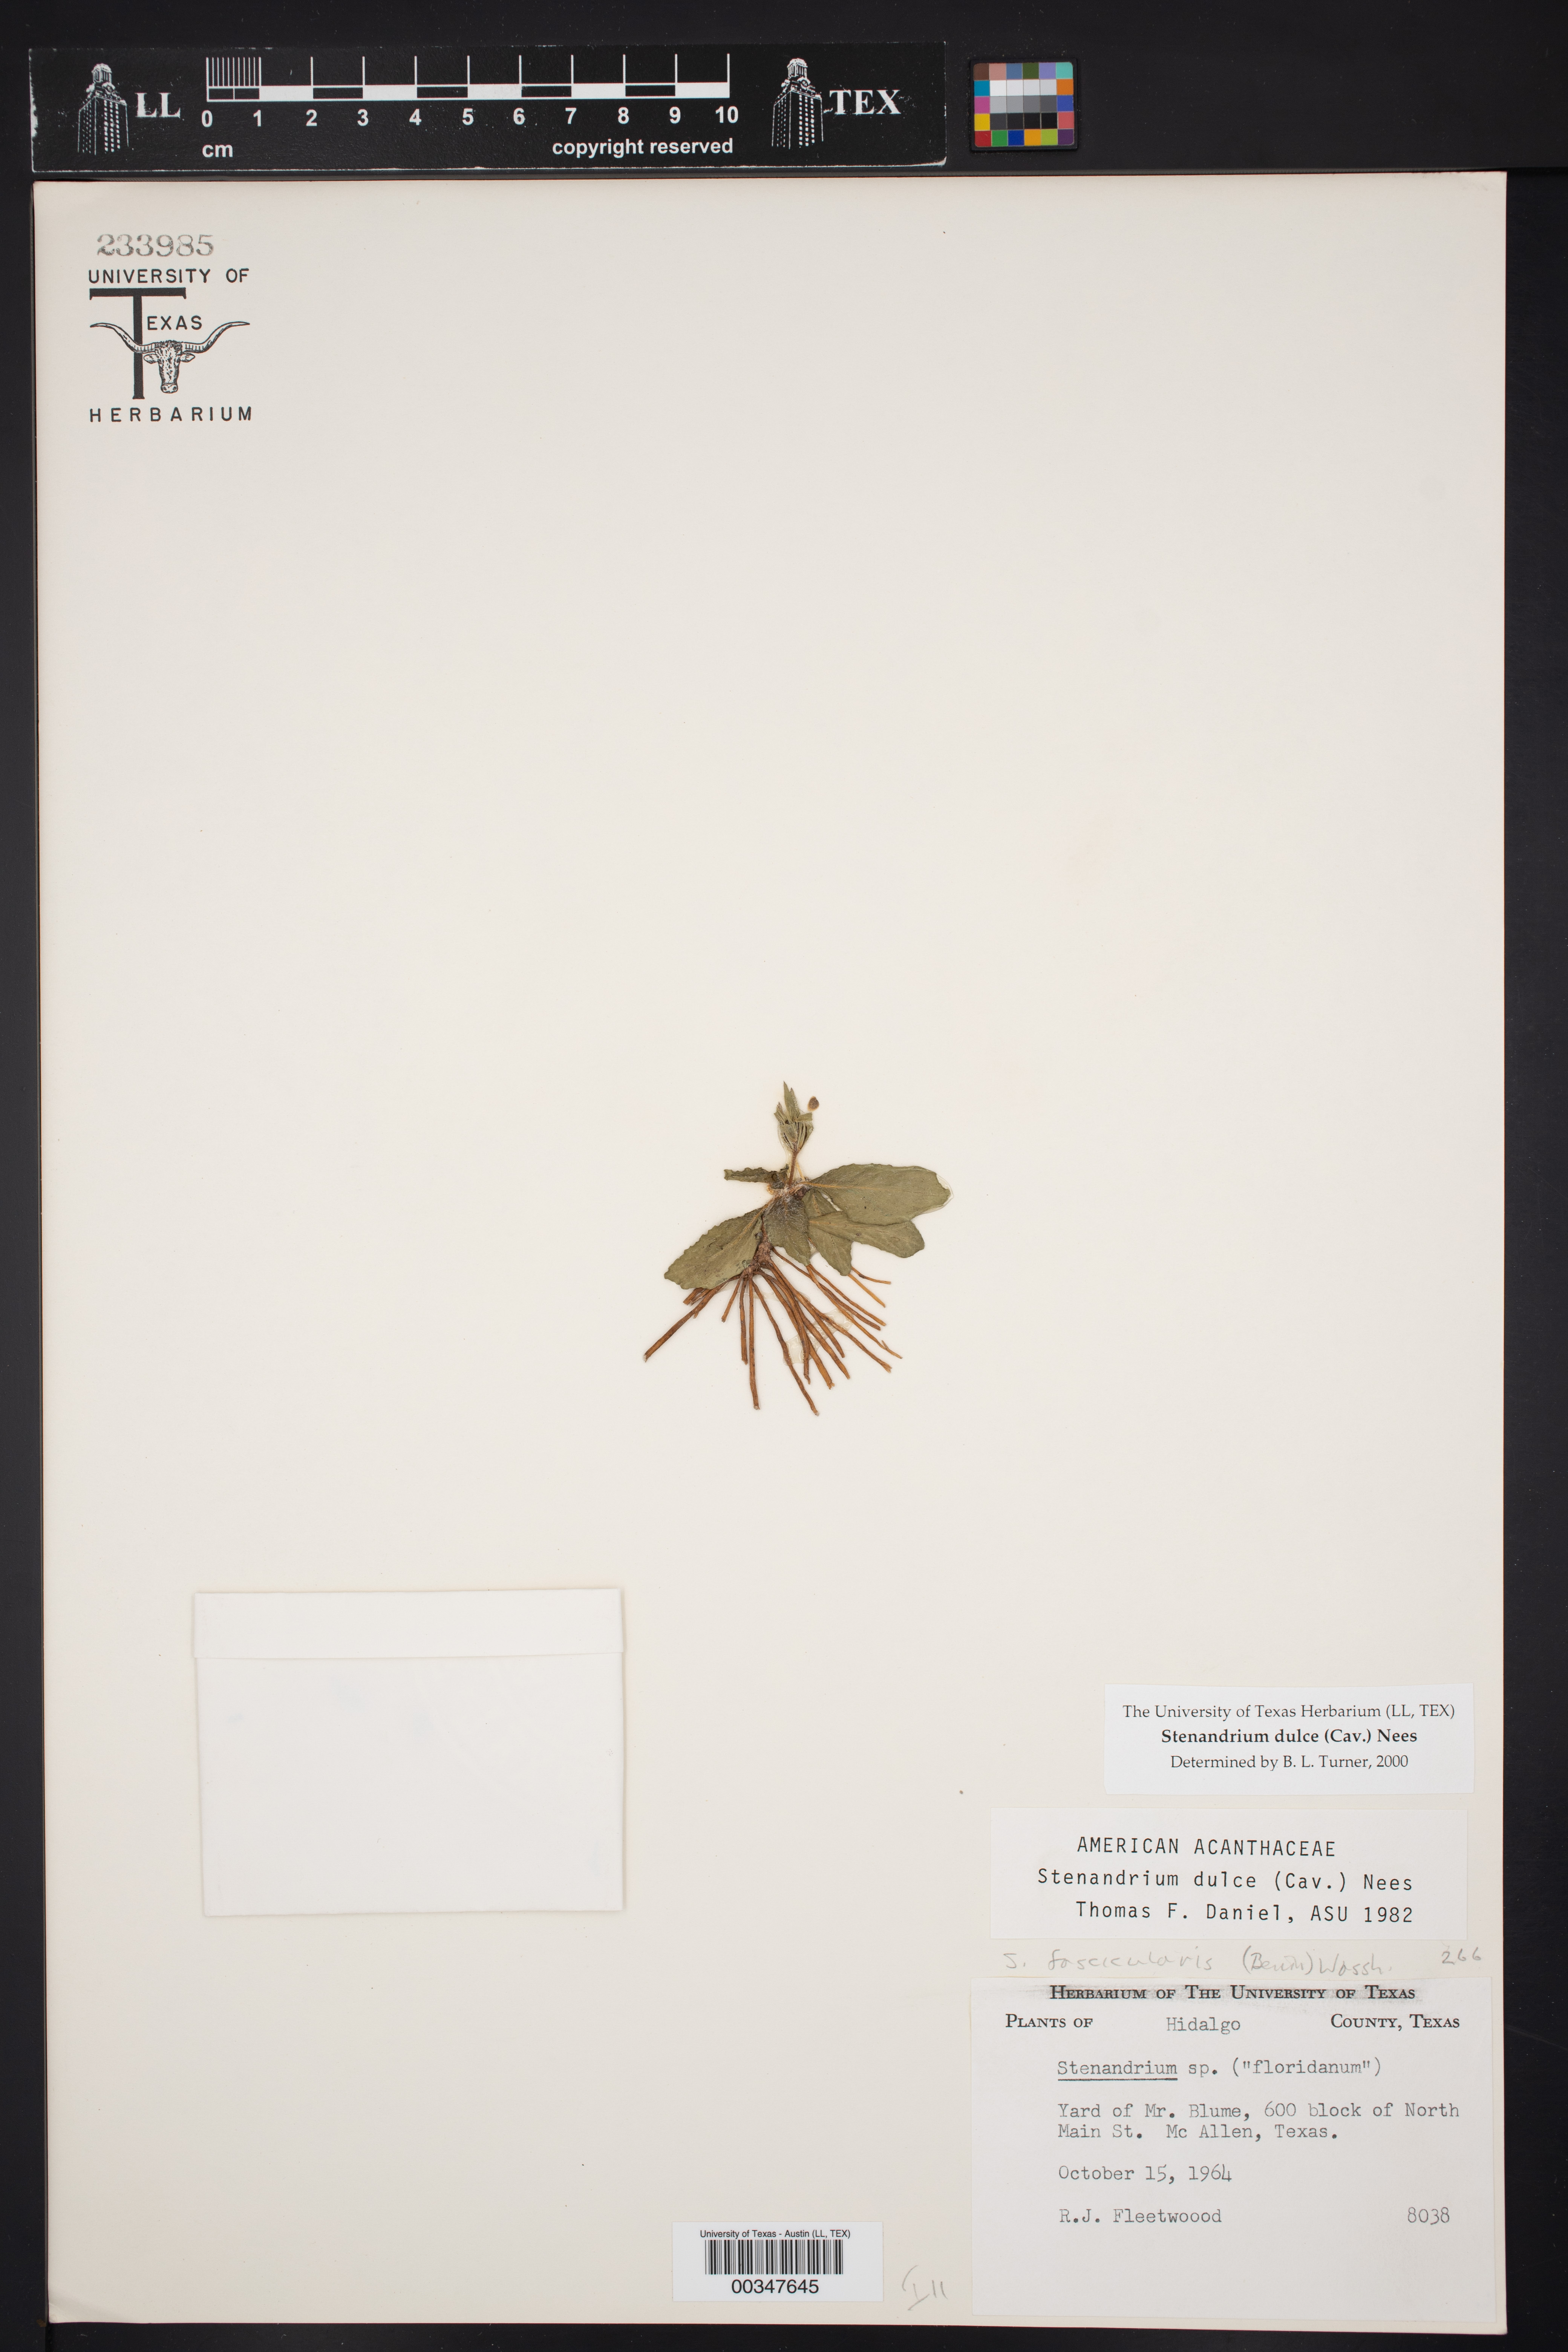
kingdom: Plantae
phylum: Tracheophyta
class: Magnoliopsida
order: Lamiales
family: Acanthaceae
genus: Stenandrium
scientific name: Stenandrium dulce
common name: Pinklet
